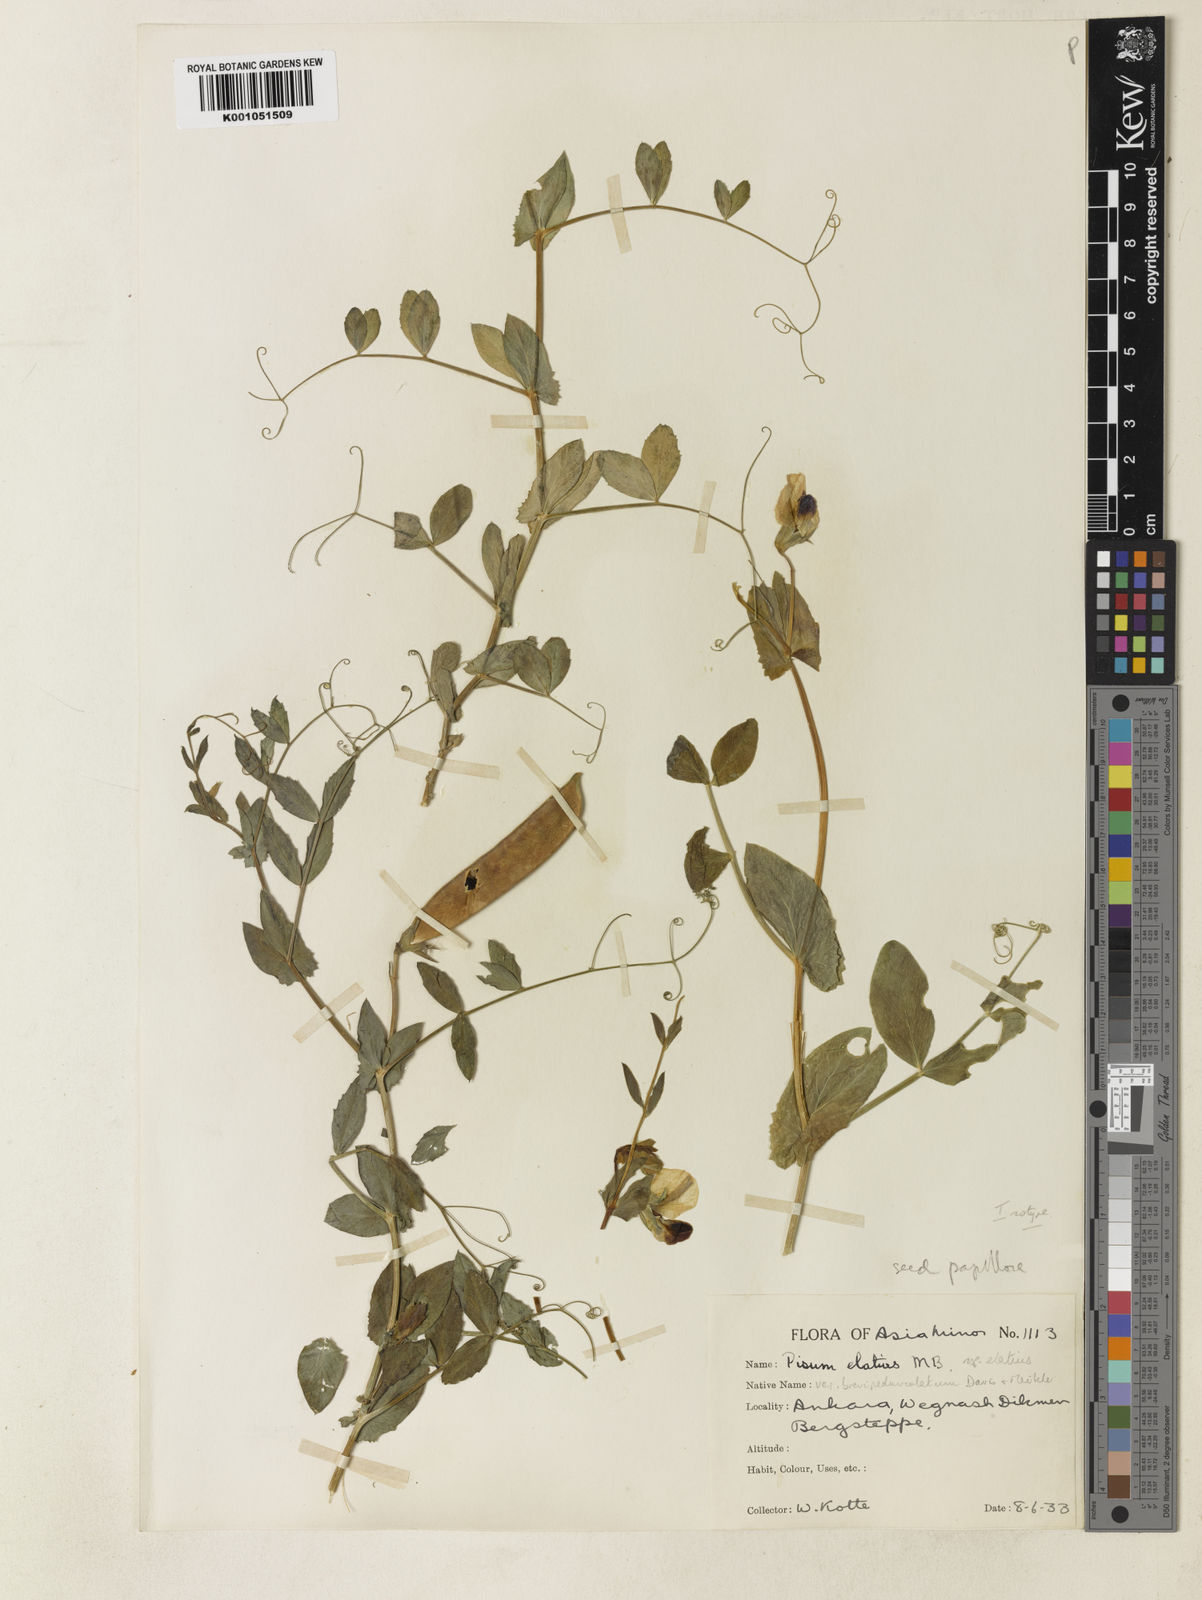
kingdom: Plantae
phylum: Tracheophyta
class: Magnoliopsida
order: Fabales
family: Fabaceae
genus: Lathyrus
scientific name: Lathyrus oleraceus
